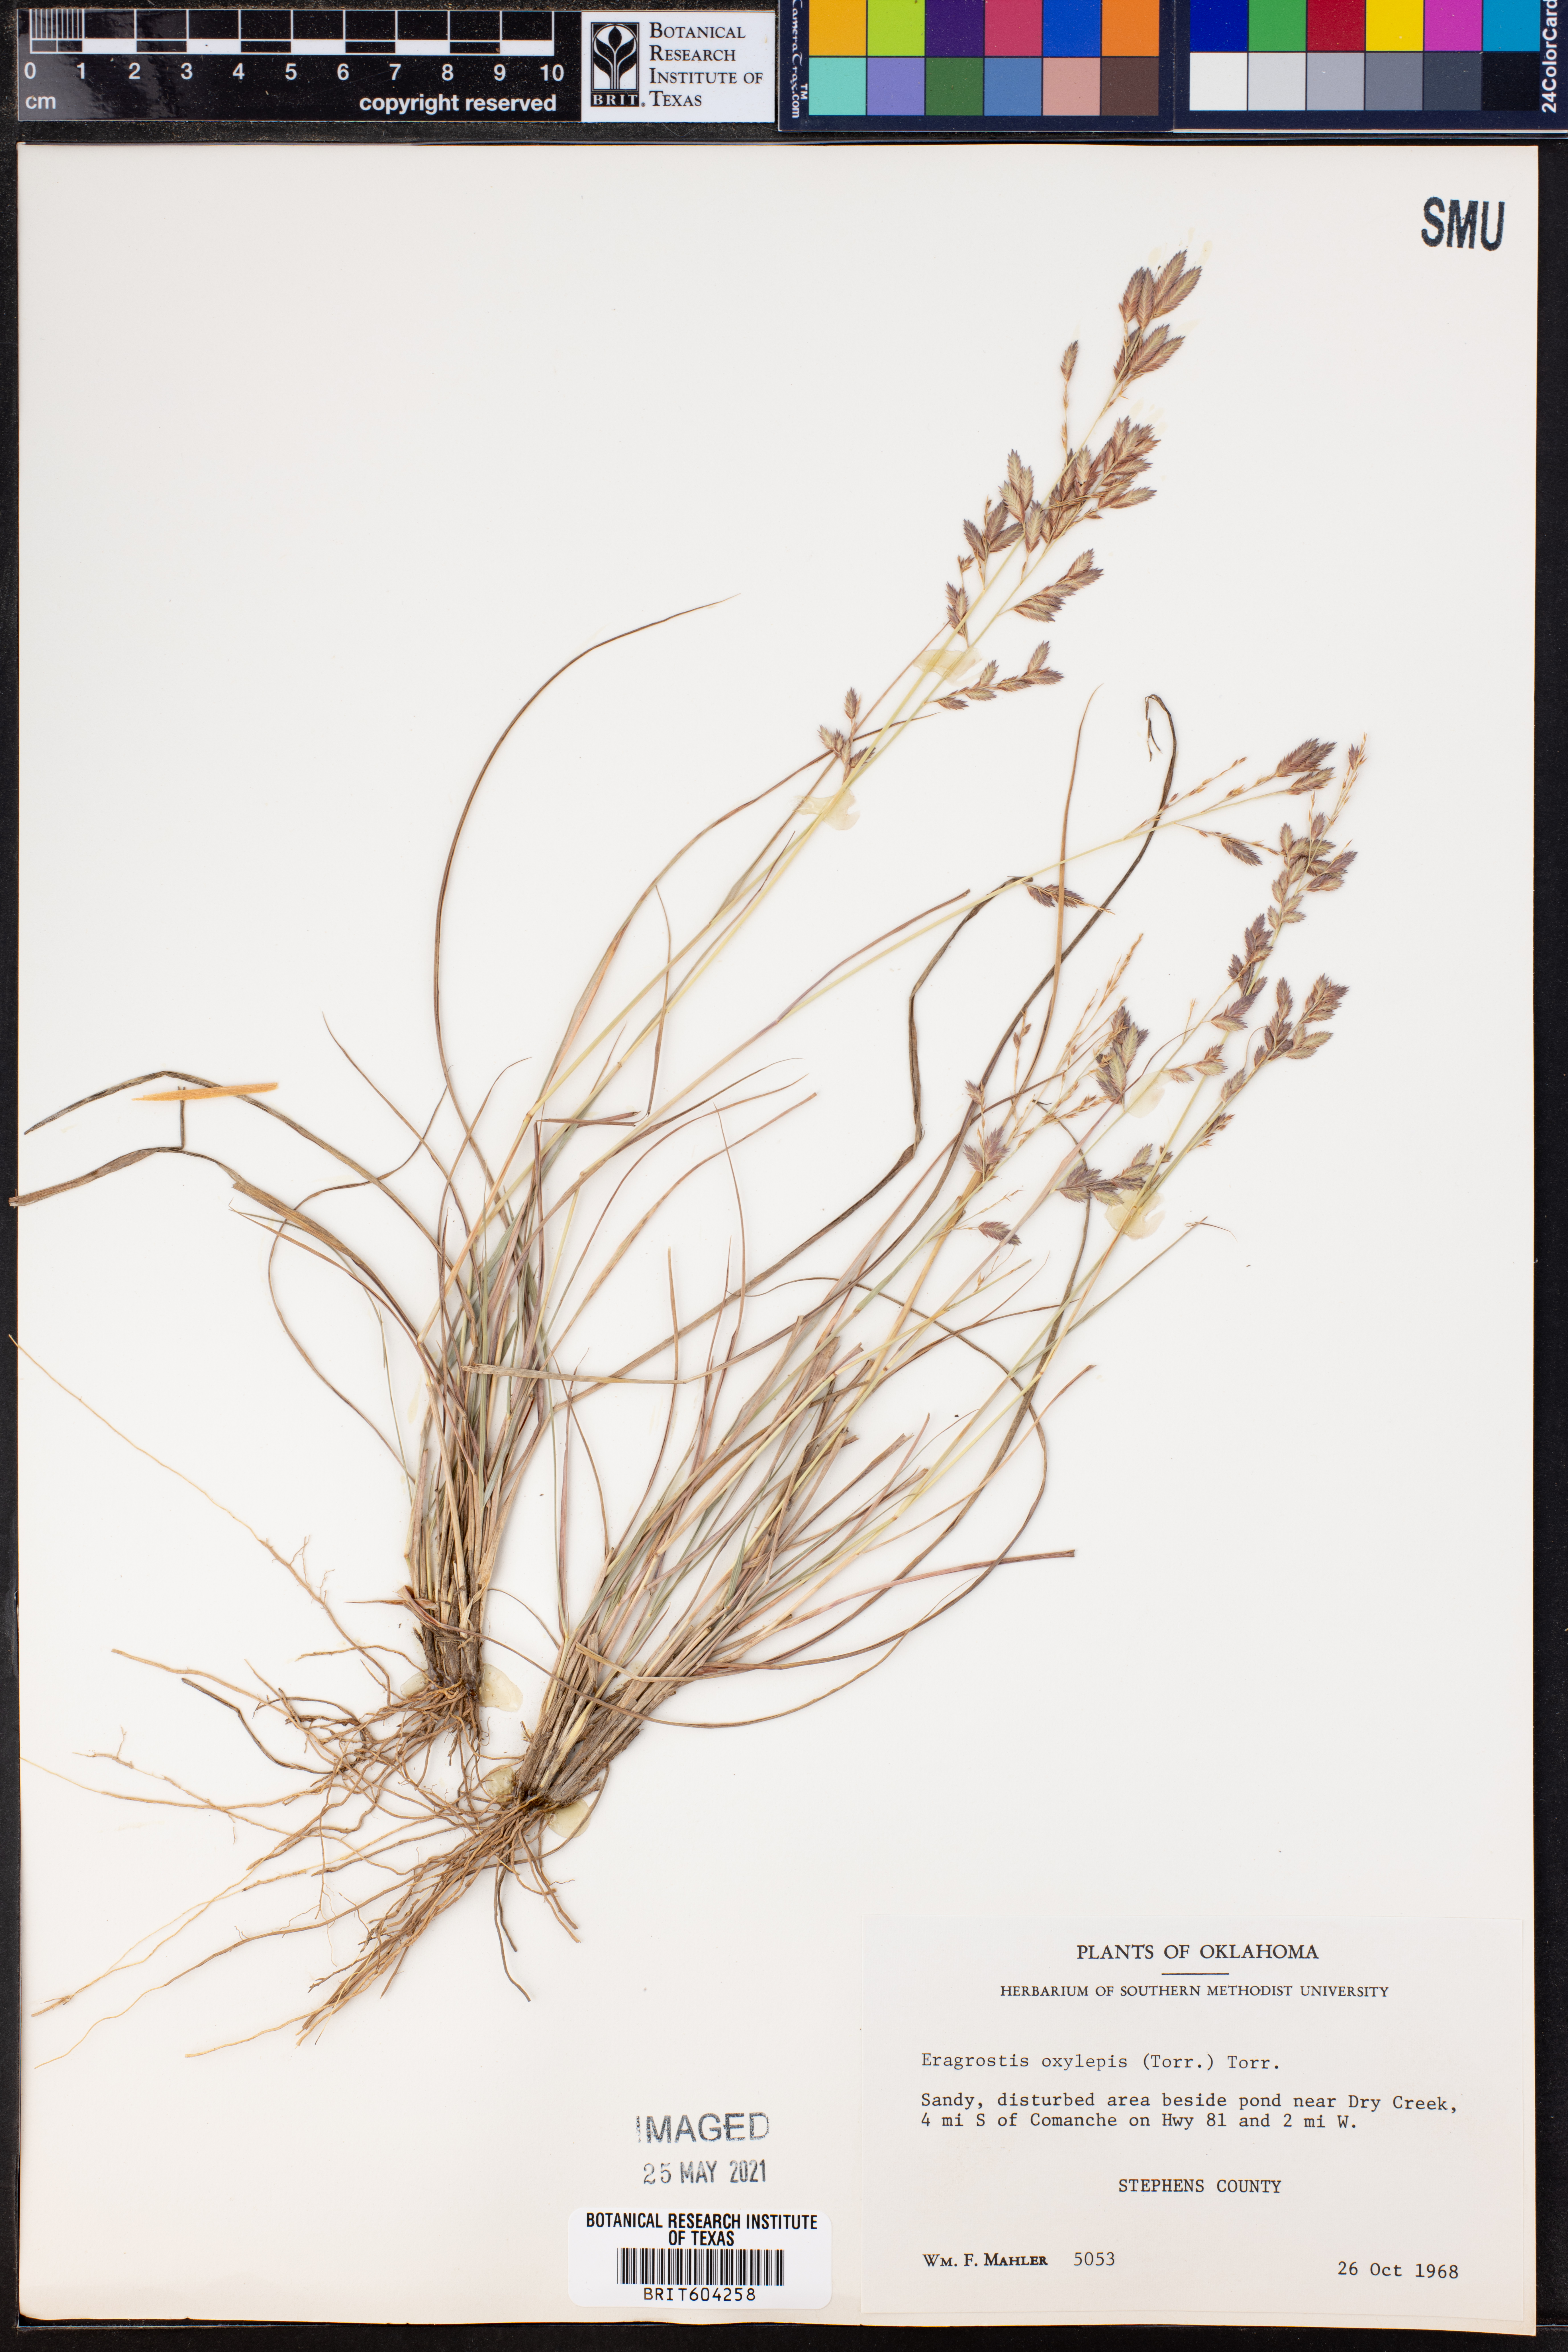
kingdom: Plantae
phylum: Tracheophyta
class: Liliopsida
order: Poales
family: Poaceae
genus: Eragrostis
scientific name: Eragrostis secundiflora
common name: Red love grass
